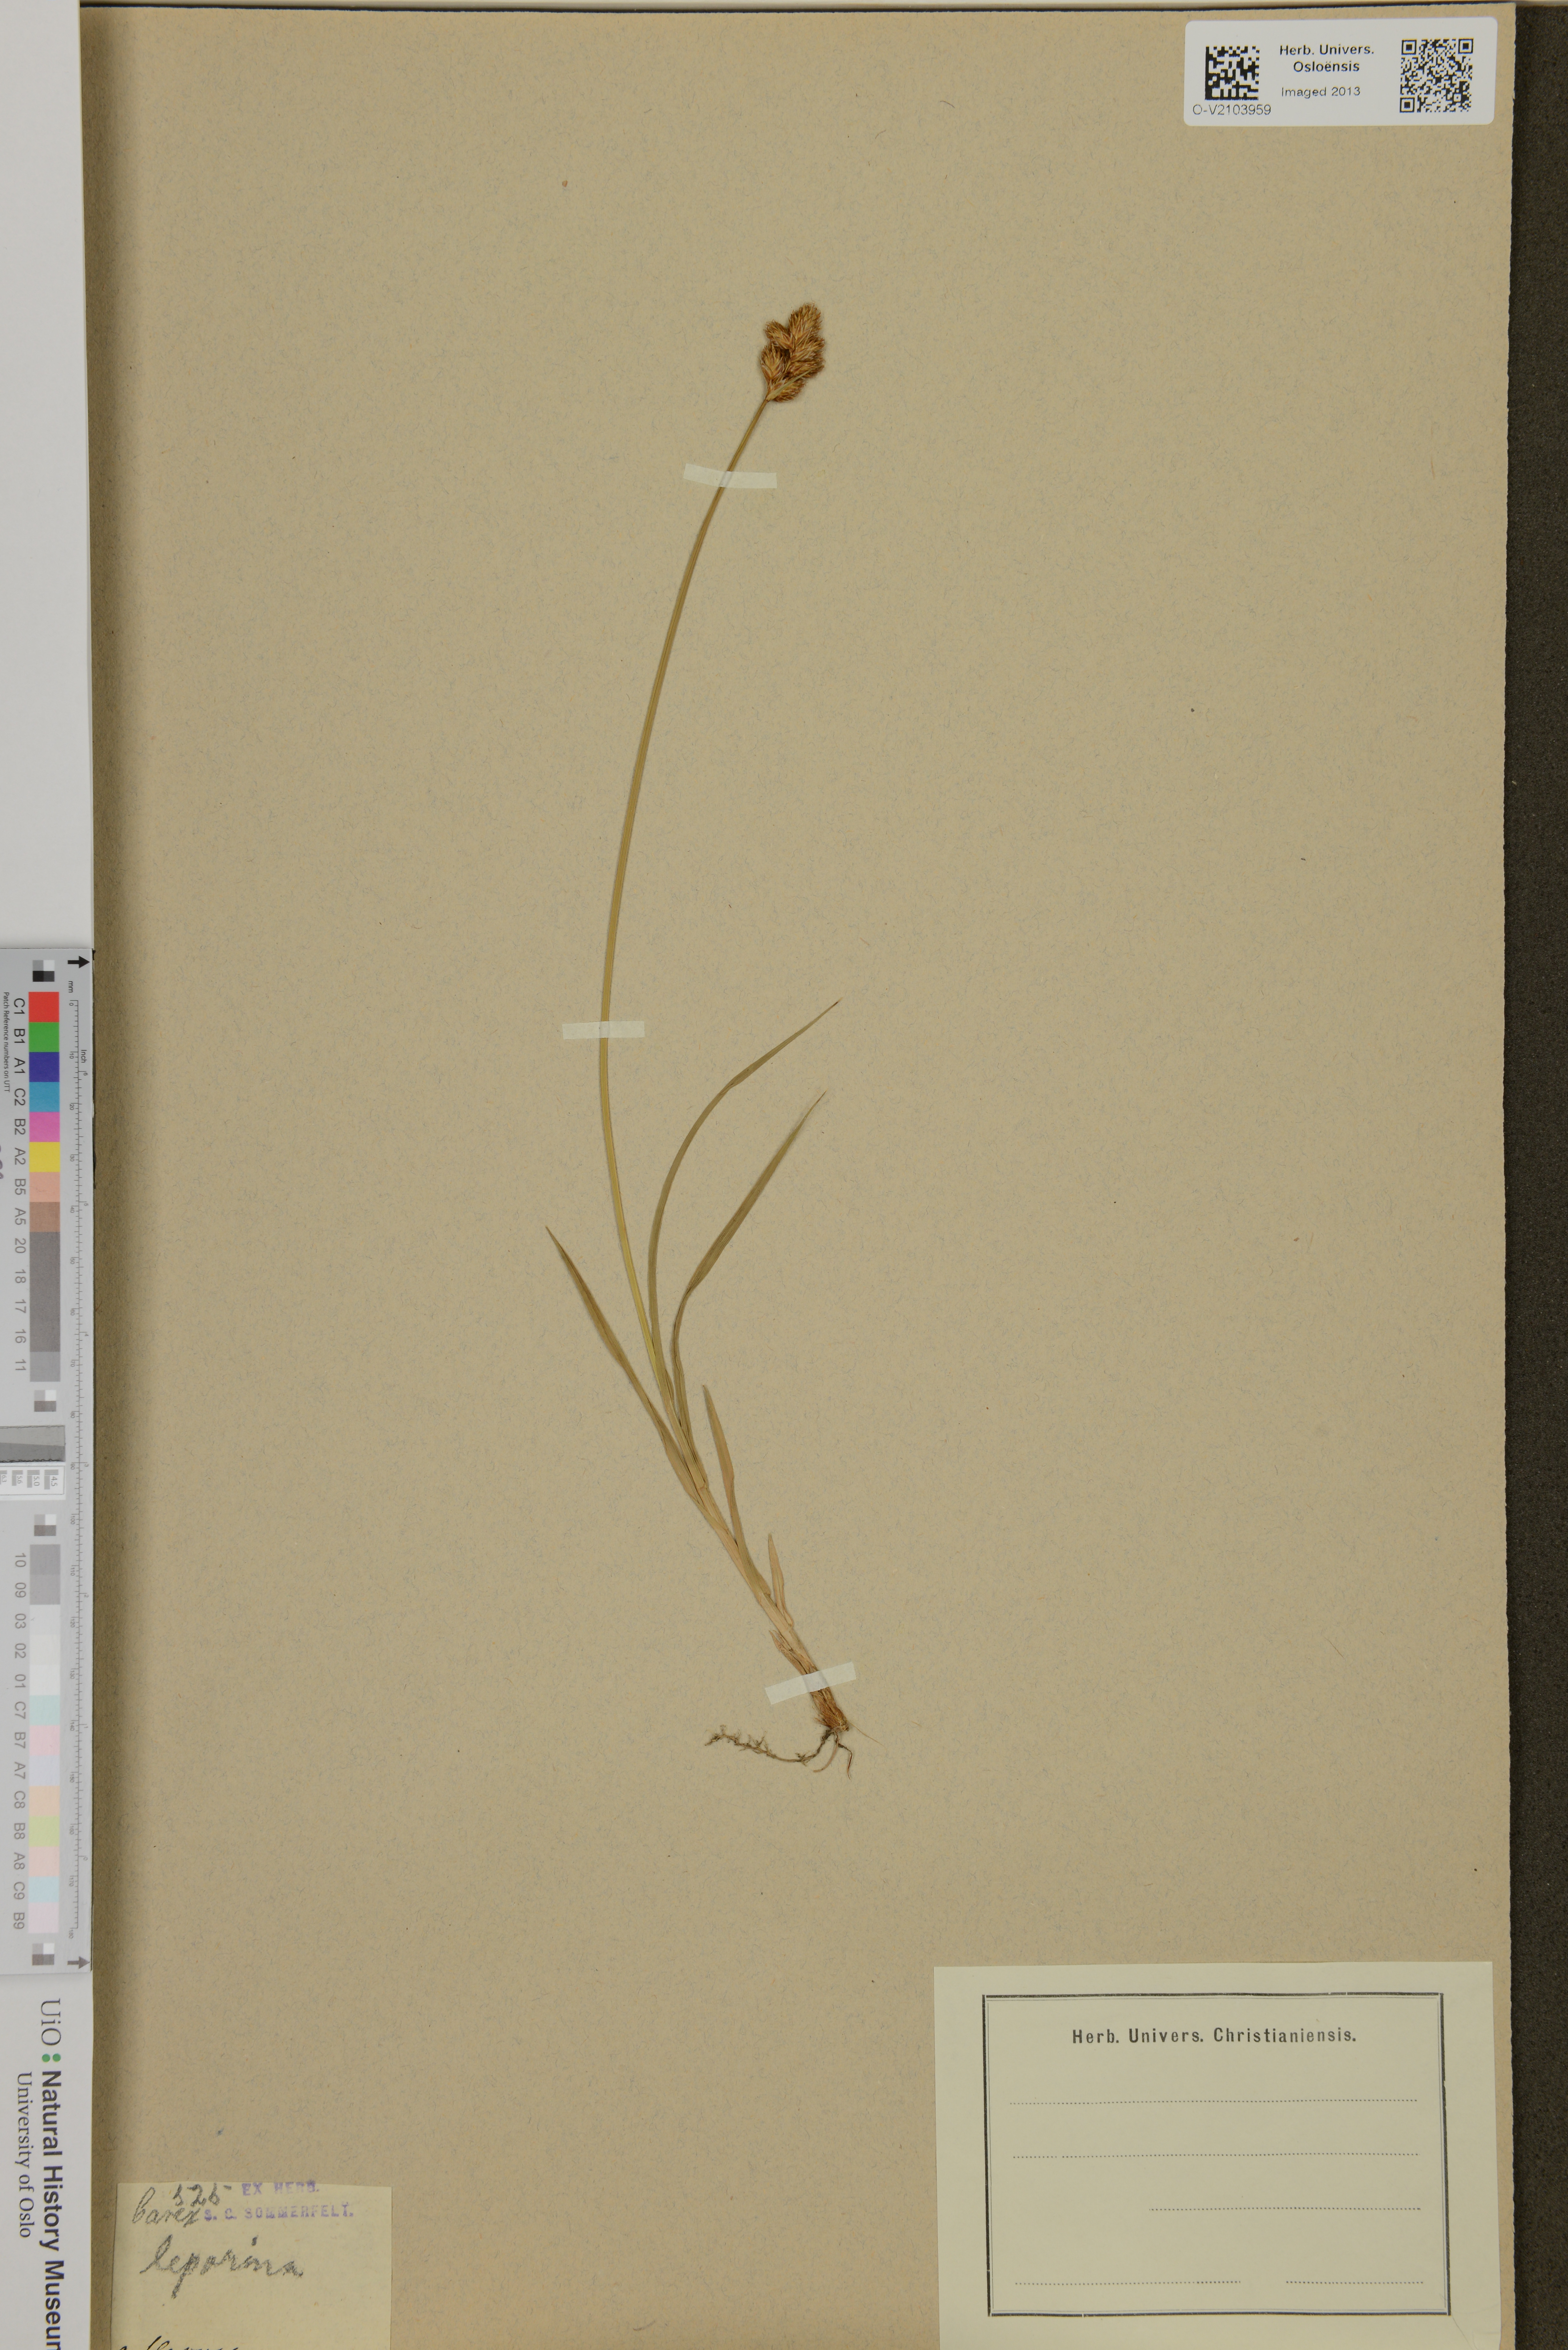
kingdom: Plantae
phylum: Tracheophyta
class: Liliopsida
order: Poales
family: Cyperaceae
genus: Carex
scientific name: Carex leporina
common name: Oval sedge
